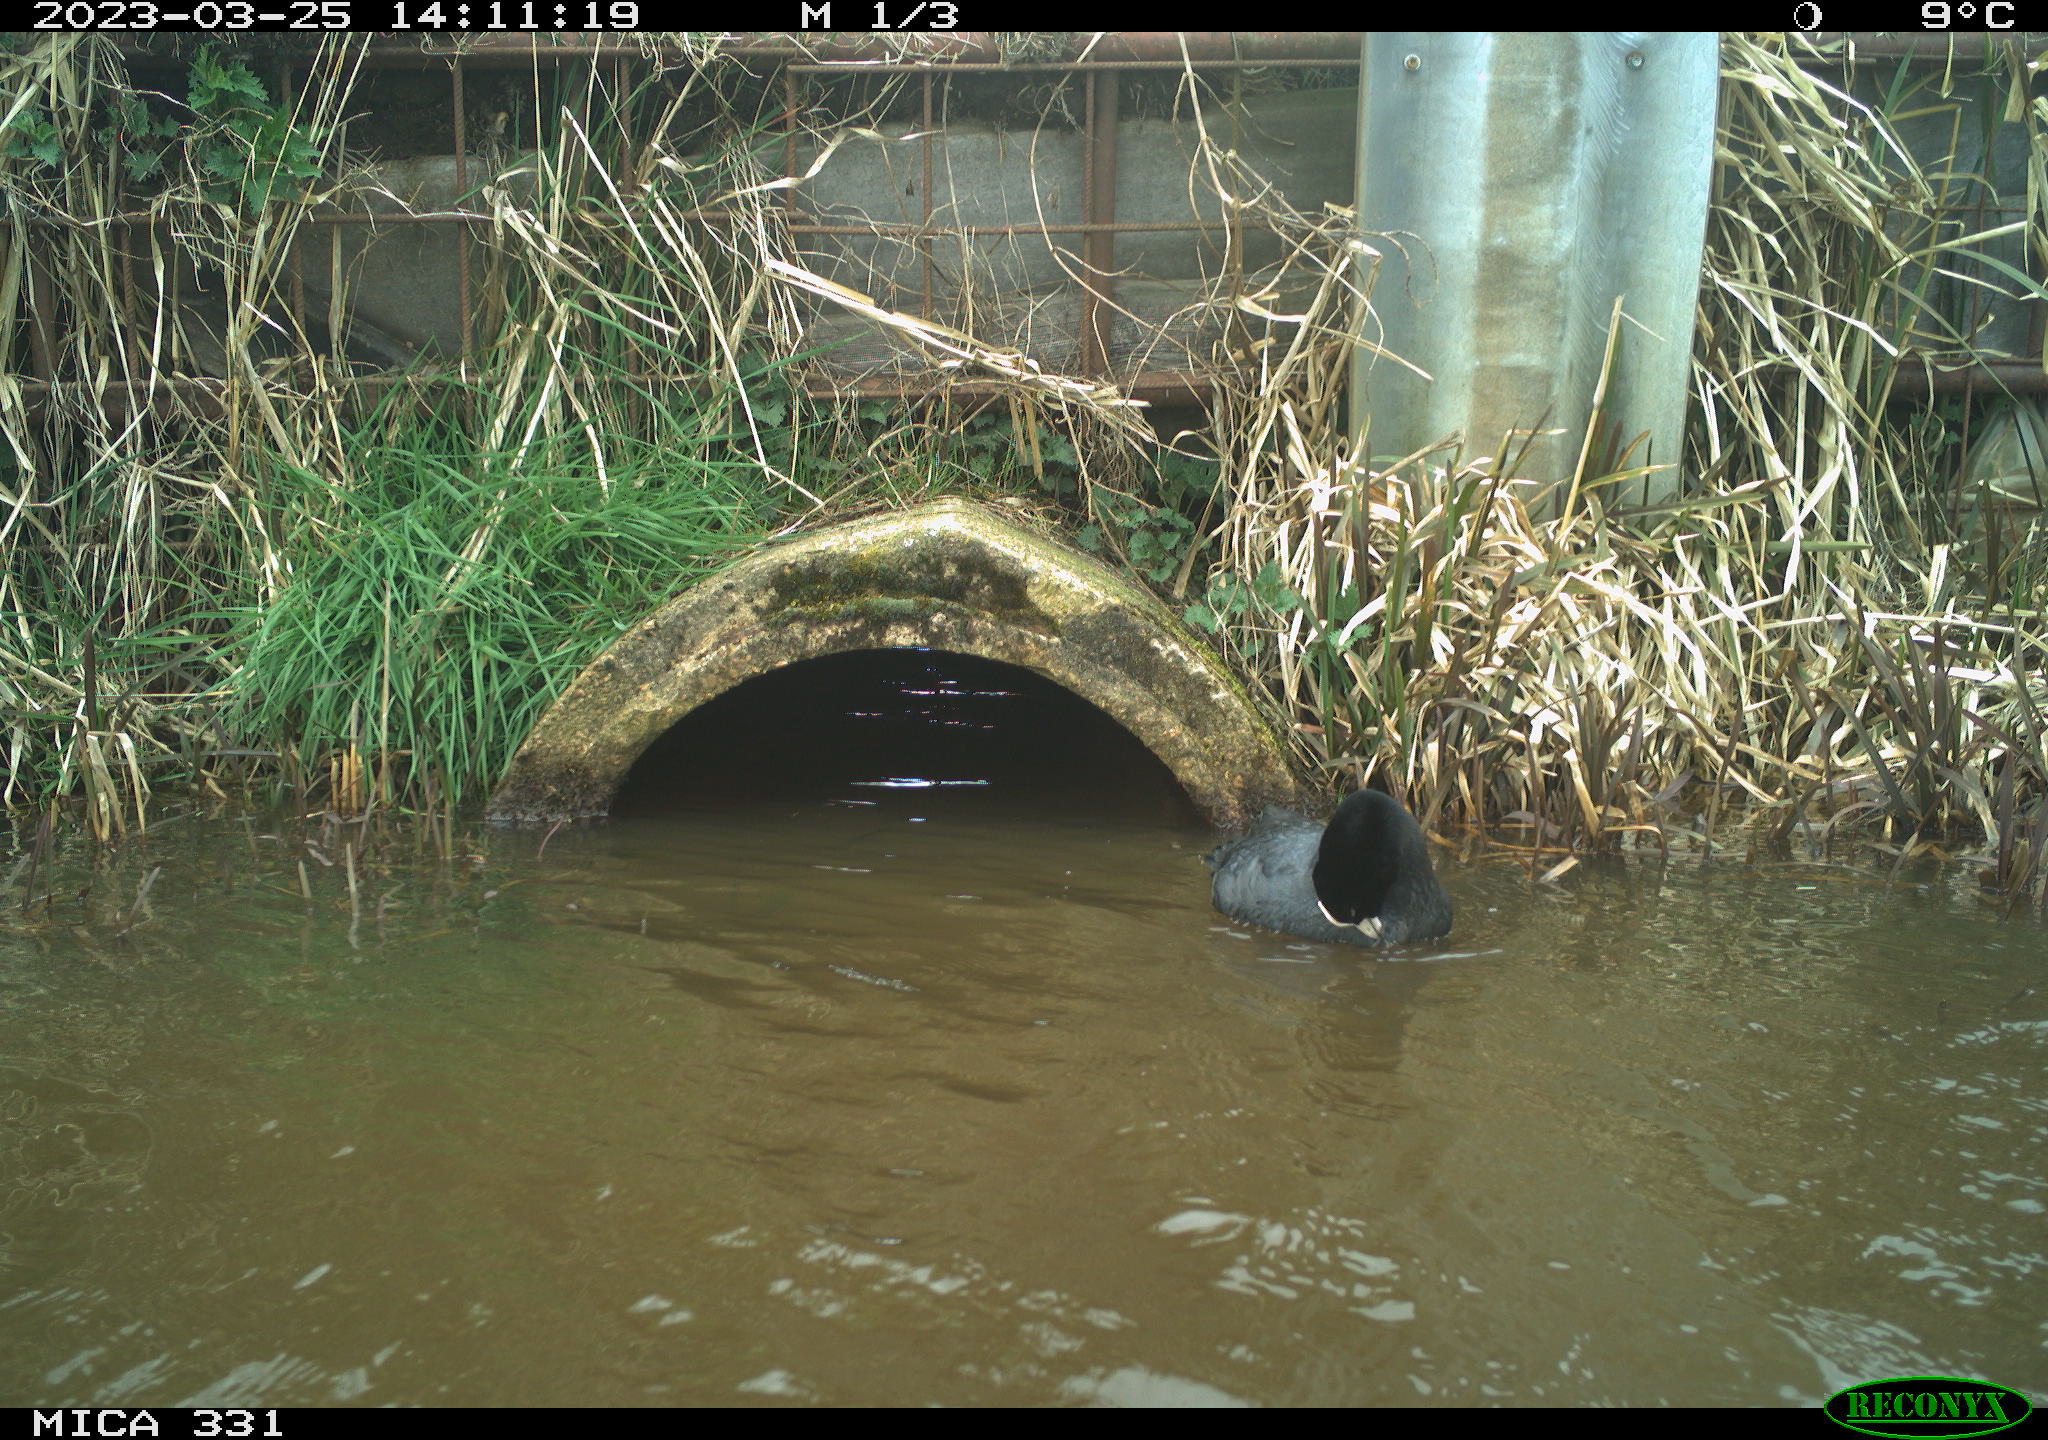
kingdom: Animalia
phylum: Chordata
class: Aves
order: Gruiformes
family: Rallidae
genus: Fulica
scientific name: Fulica atra
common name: Eurasian coot
